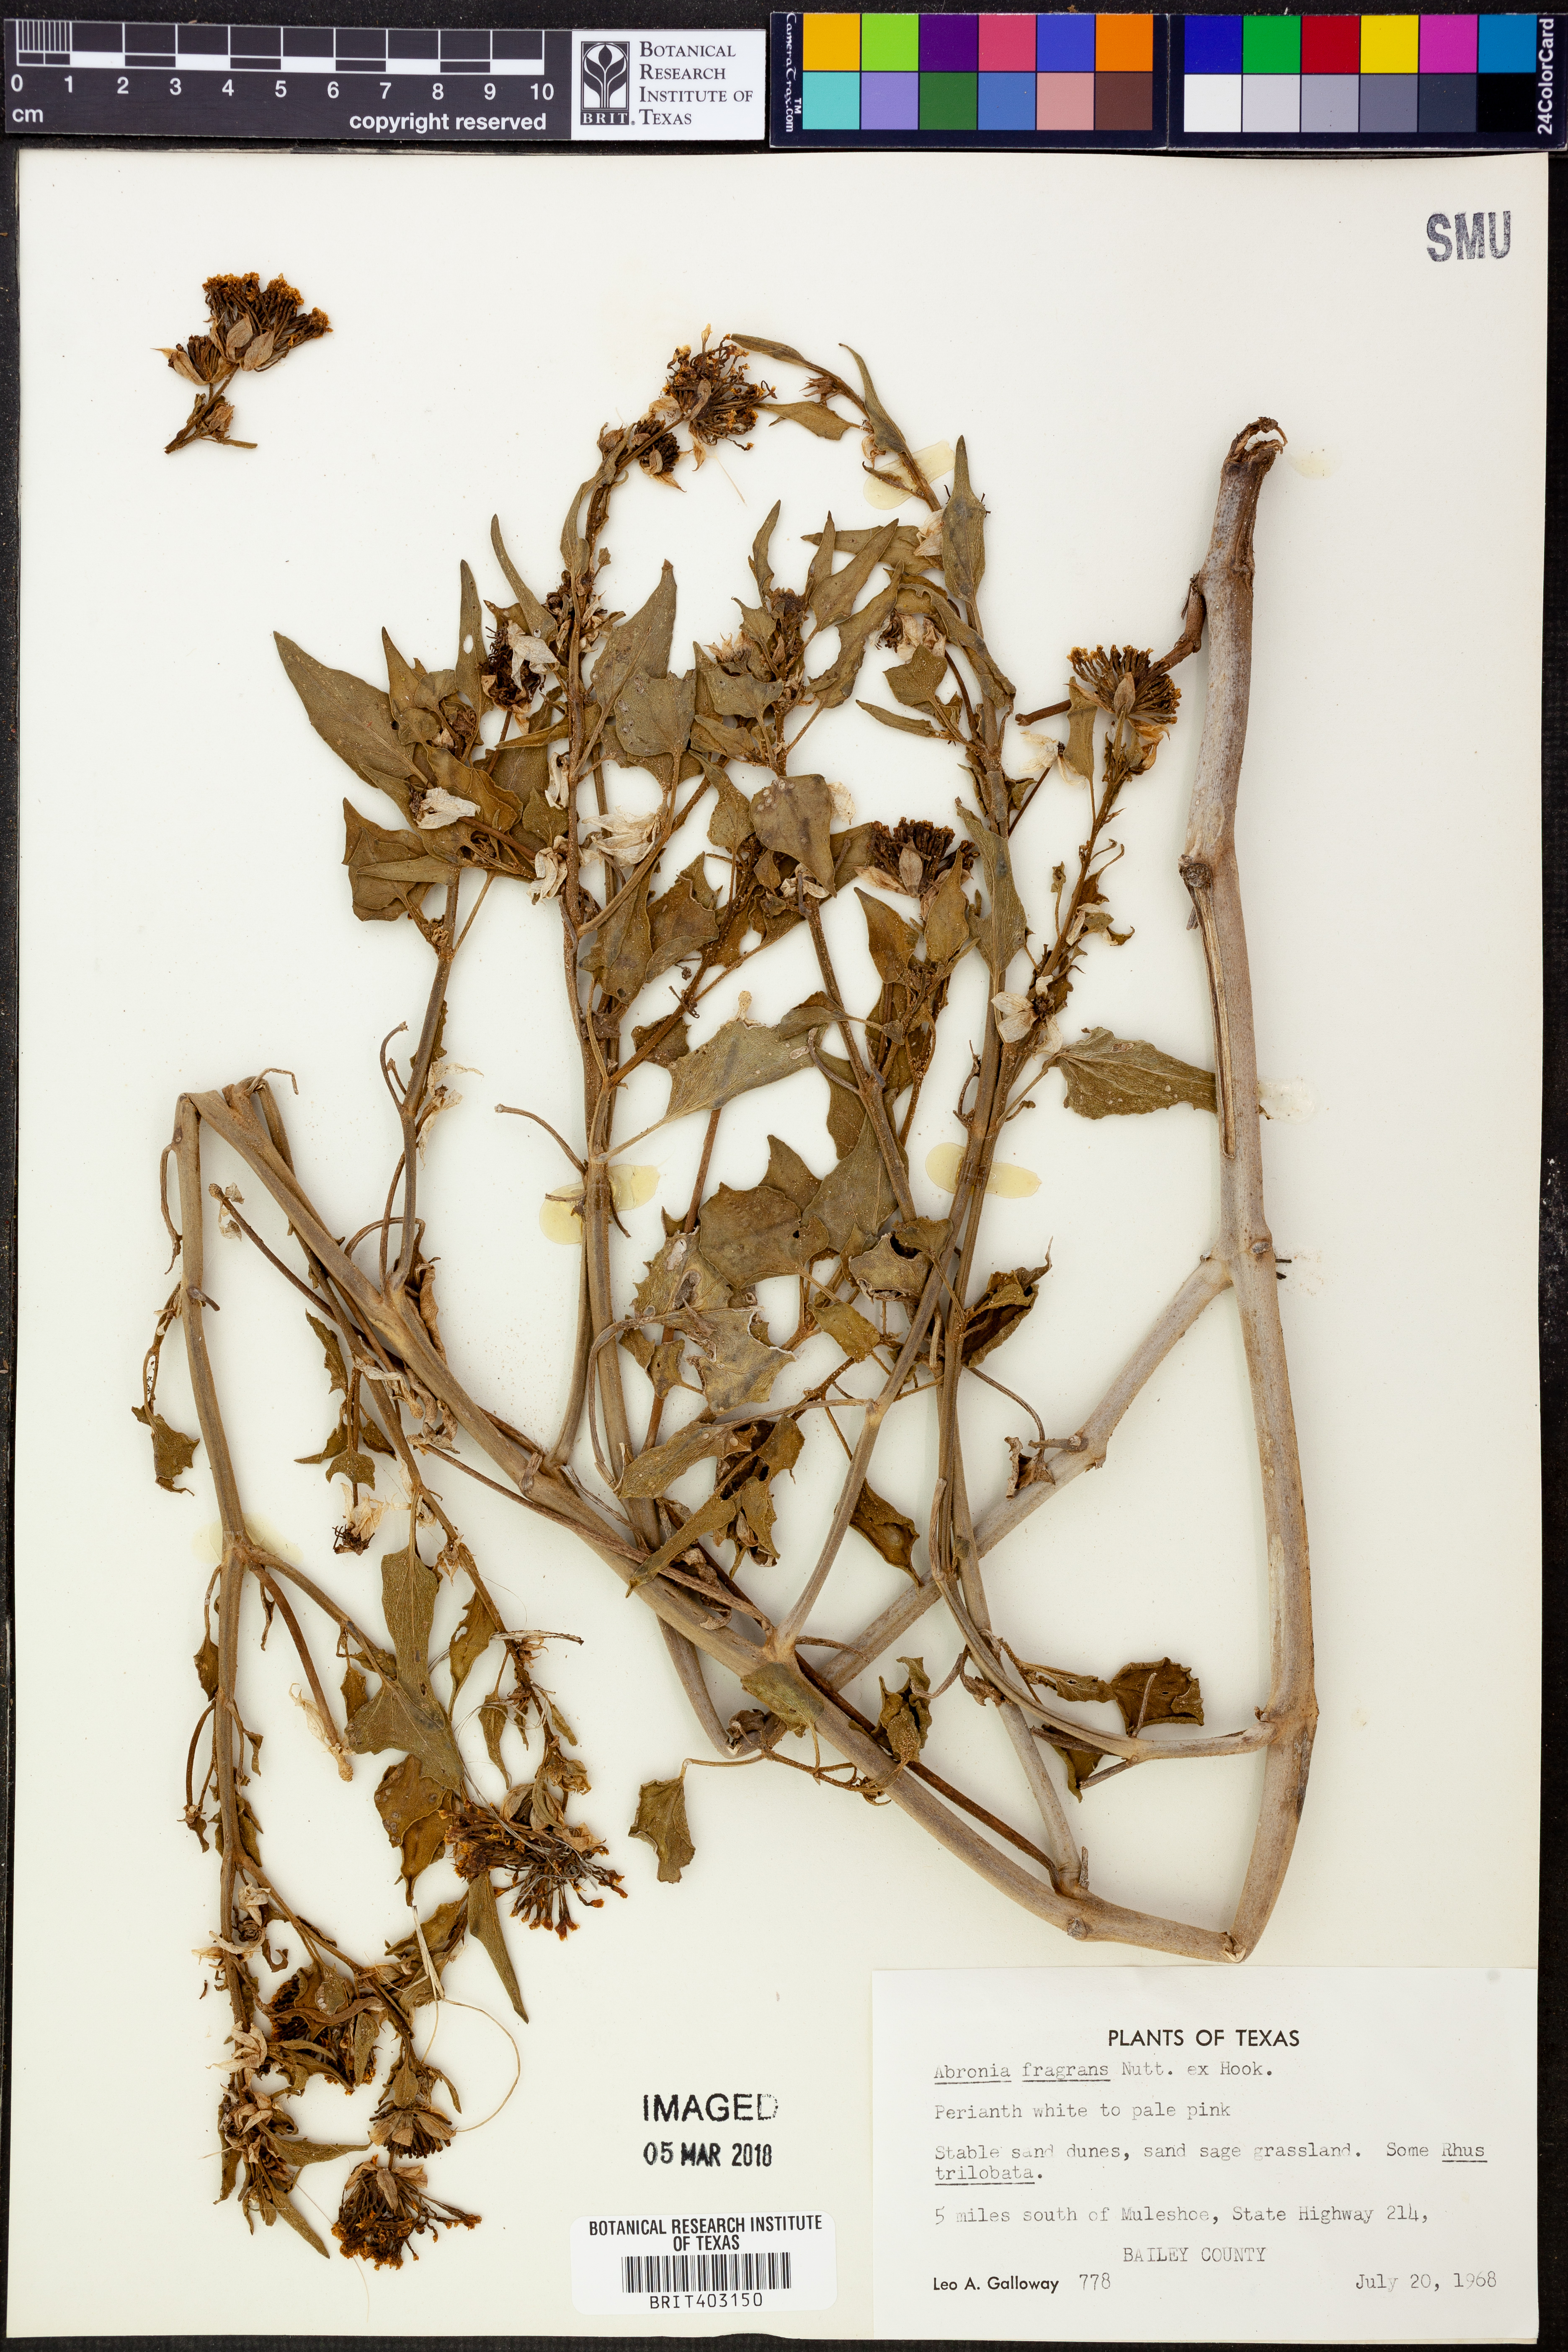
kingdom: Plantae
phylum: Tracheophyta
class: Magnoliopsida
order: Caryophyllales
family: Nyctaginaceae
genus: Abronia
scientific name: Abronia fragrans
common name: Fragrant sand-verbena
